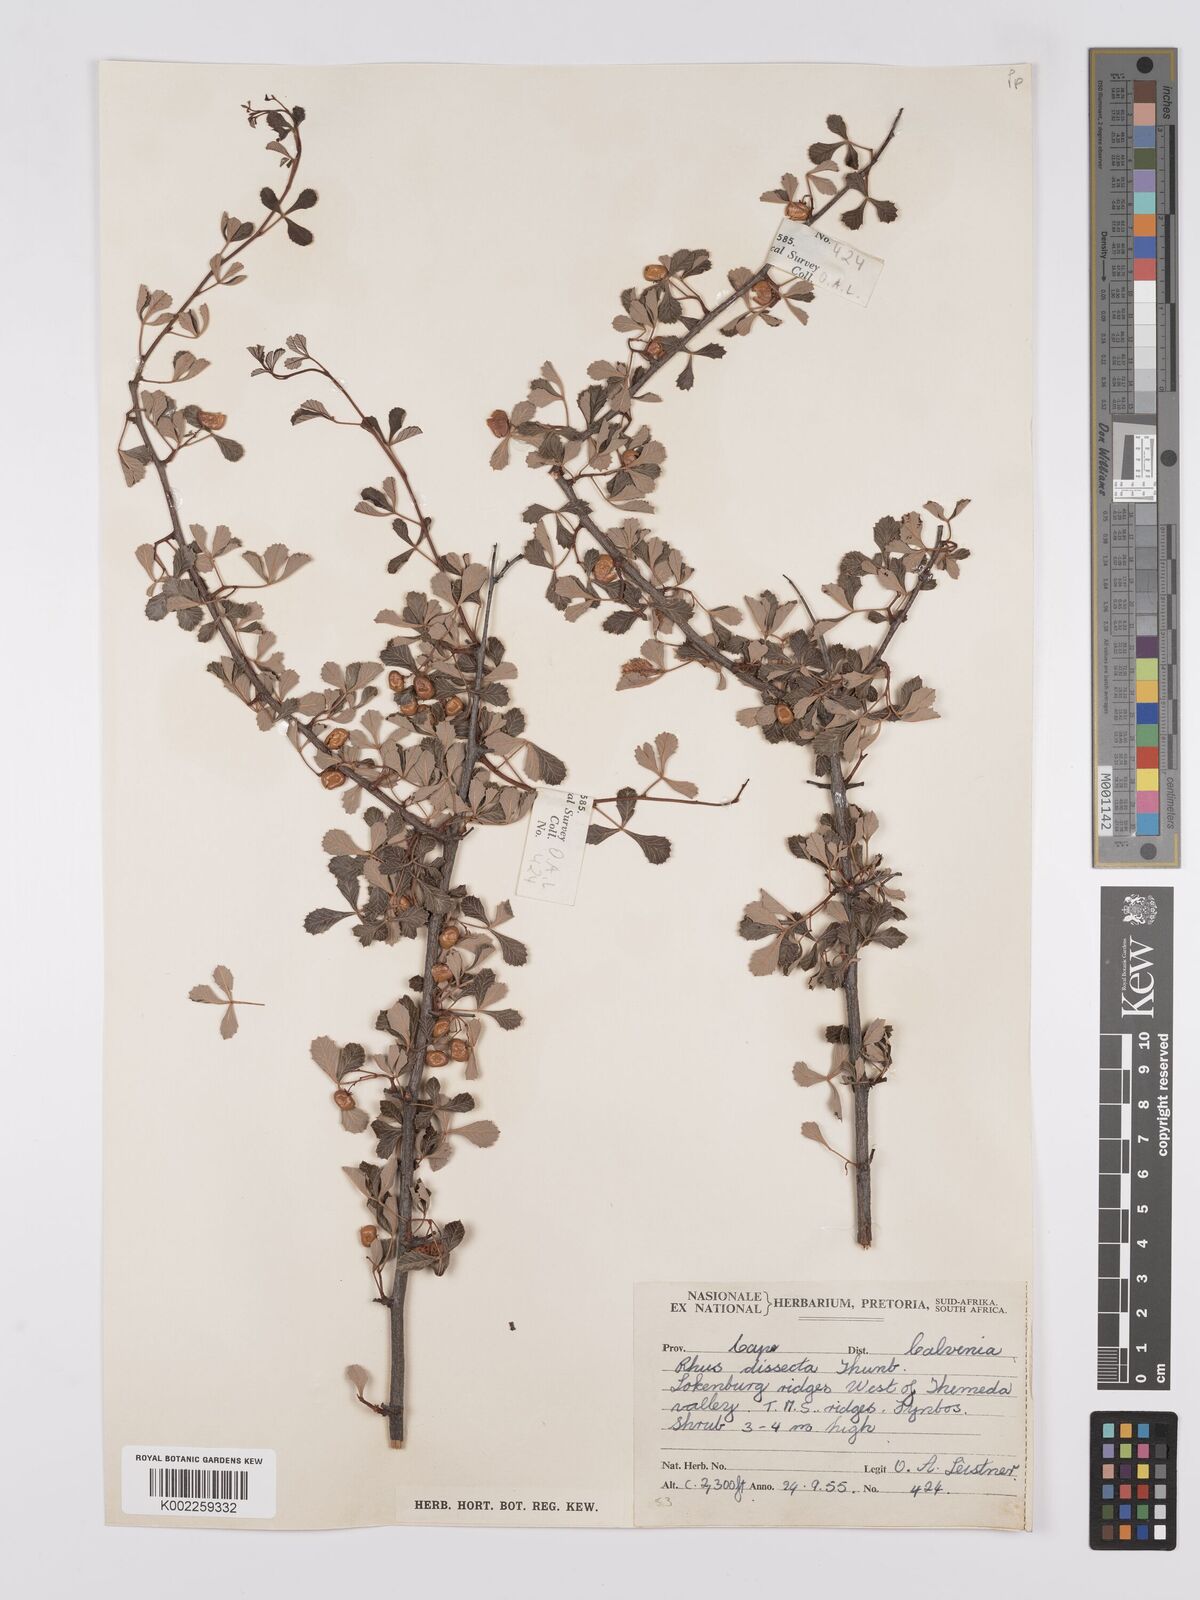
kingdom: Plantae
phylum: Tracheophyta
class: Magnoliopsida
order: Sapindales
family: Anacardiaceae
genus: Searsia
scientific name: Searsia dissecta
